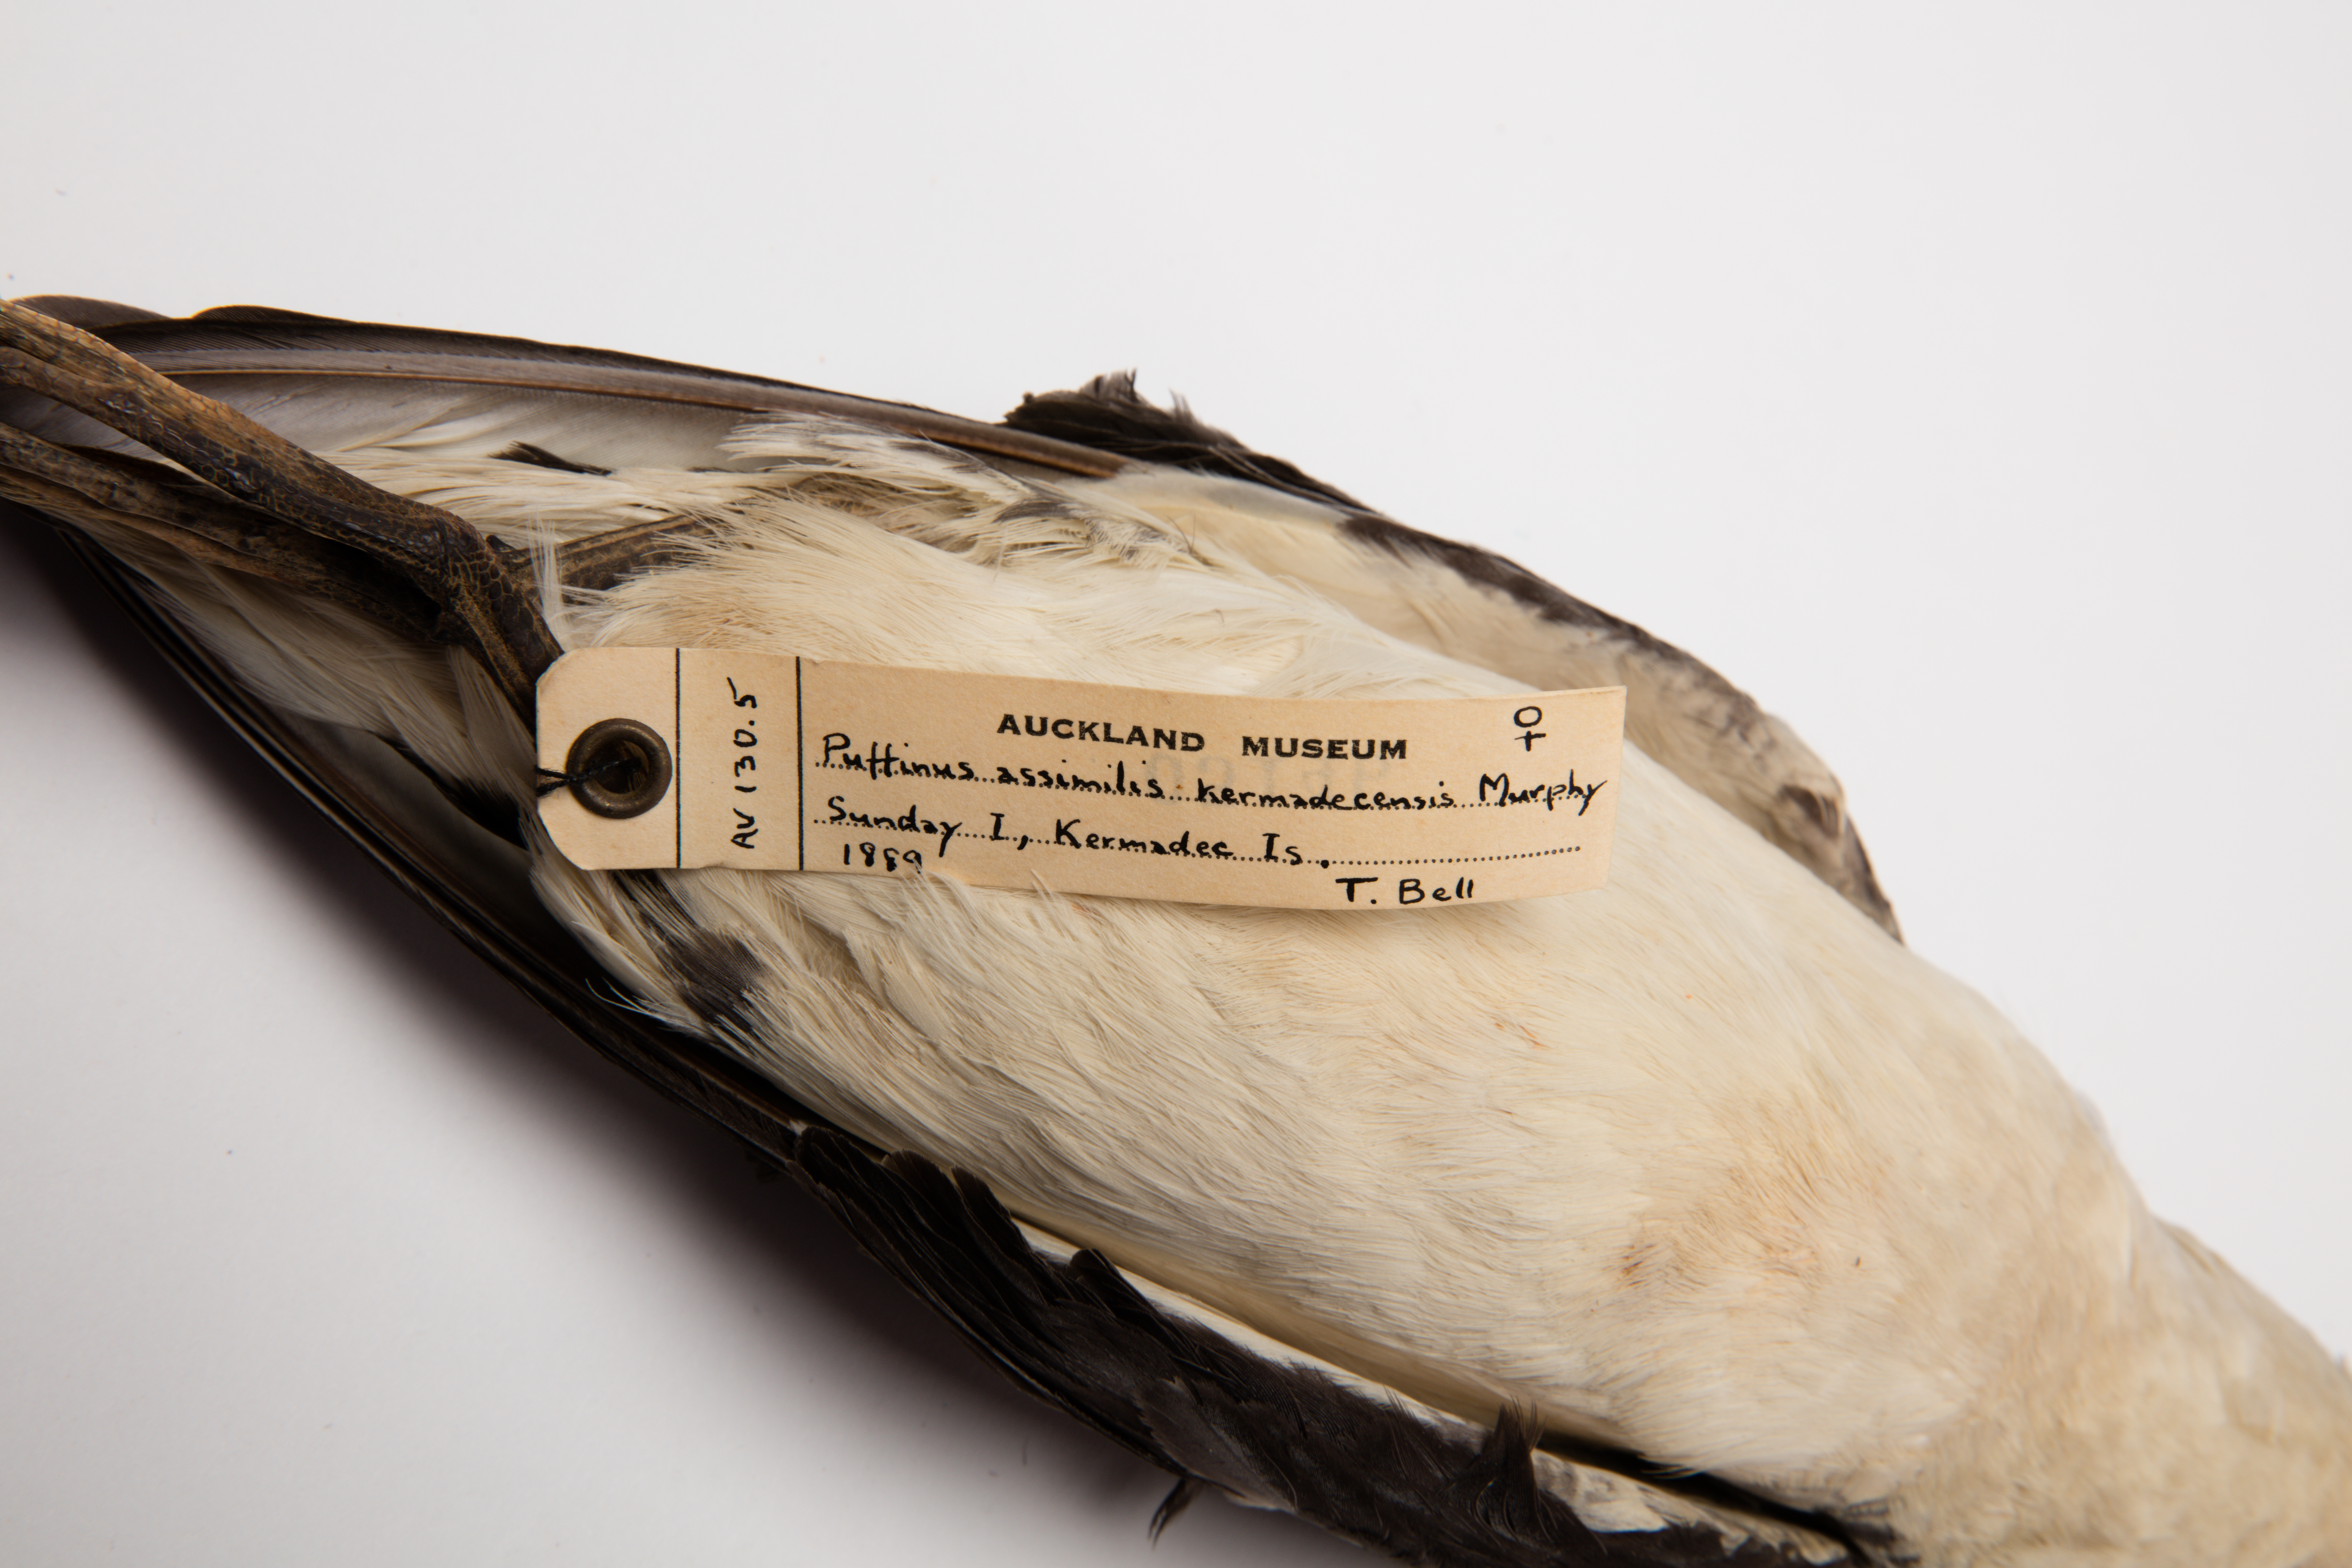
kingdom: Animalia
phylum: Chordata
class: Aves
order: Procellariiformes
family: Procellariidae
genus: Puffinus
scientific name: Puffinus assimilis
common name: Little shearwater
